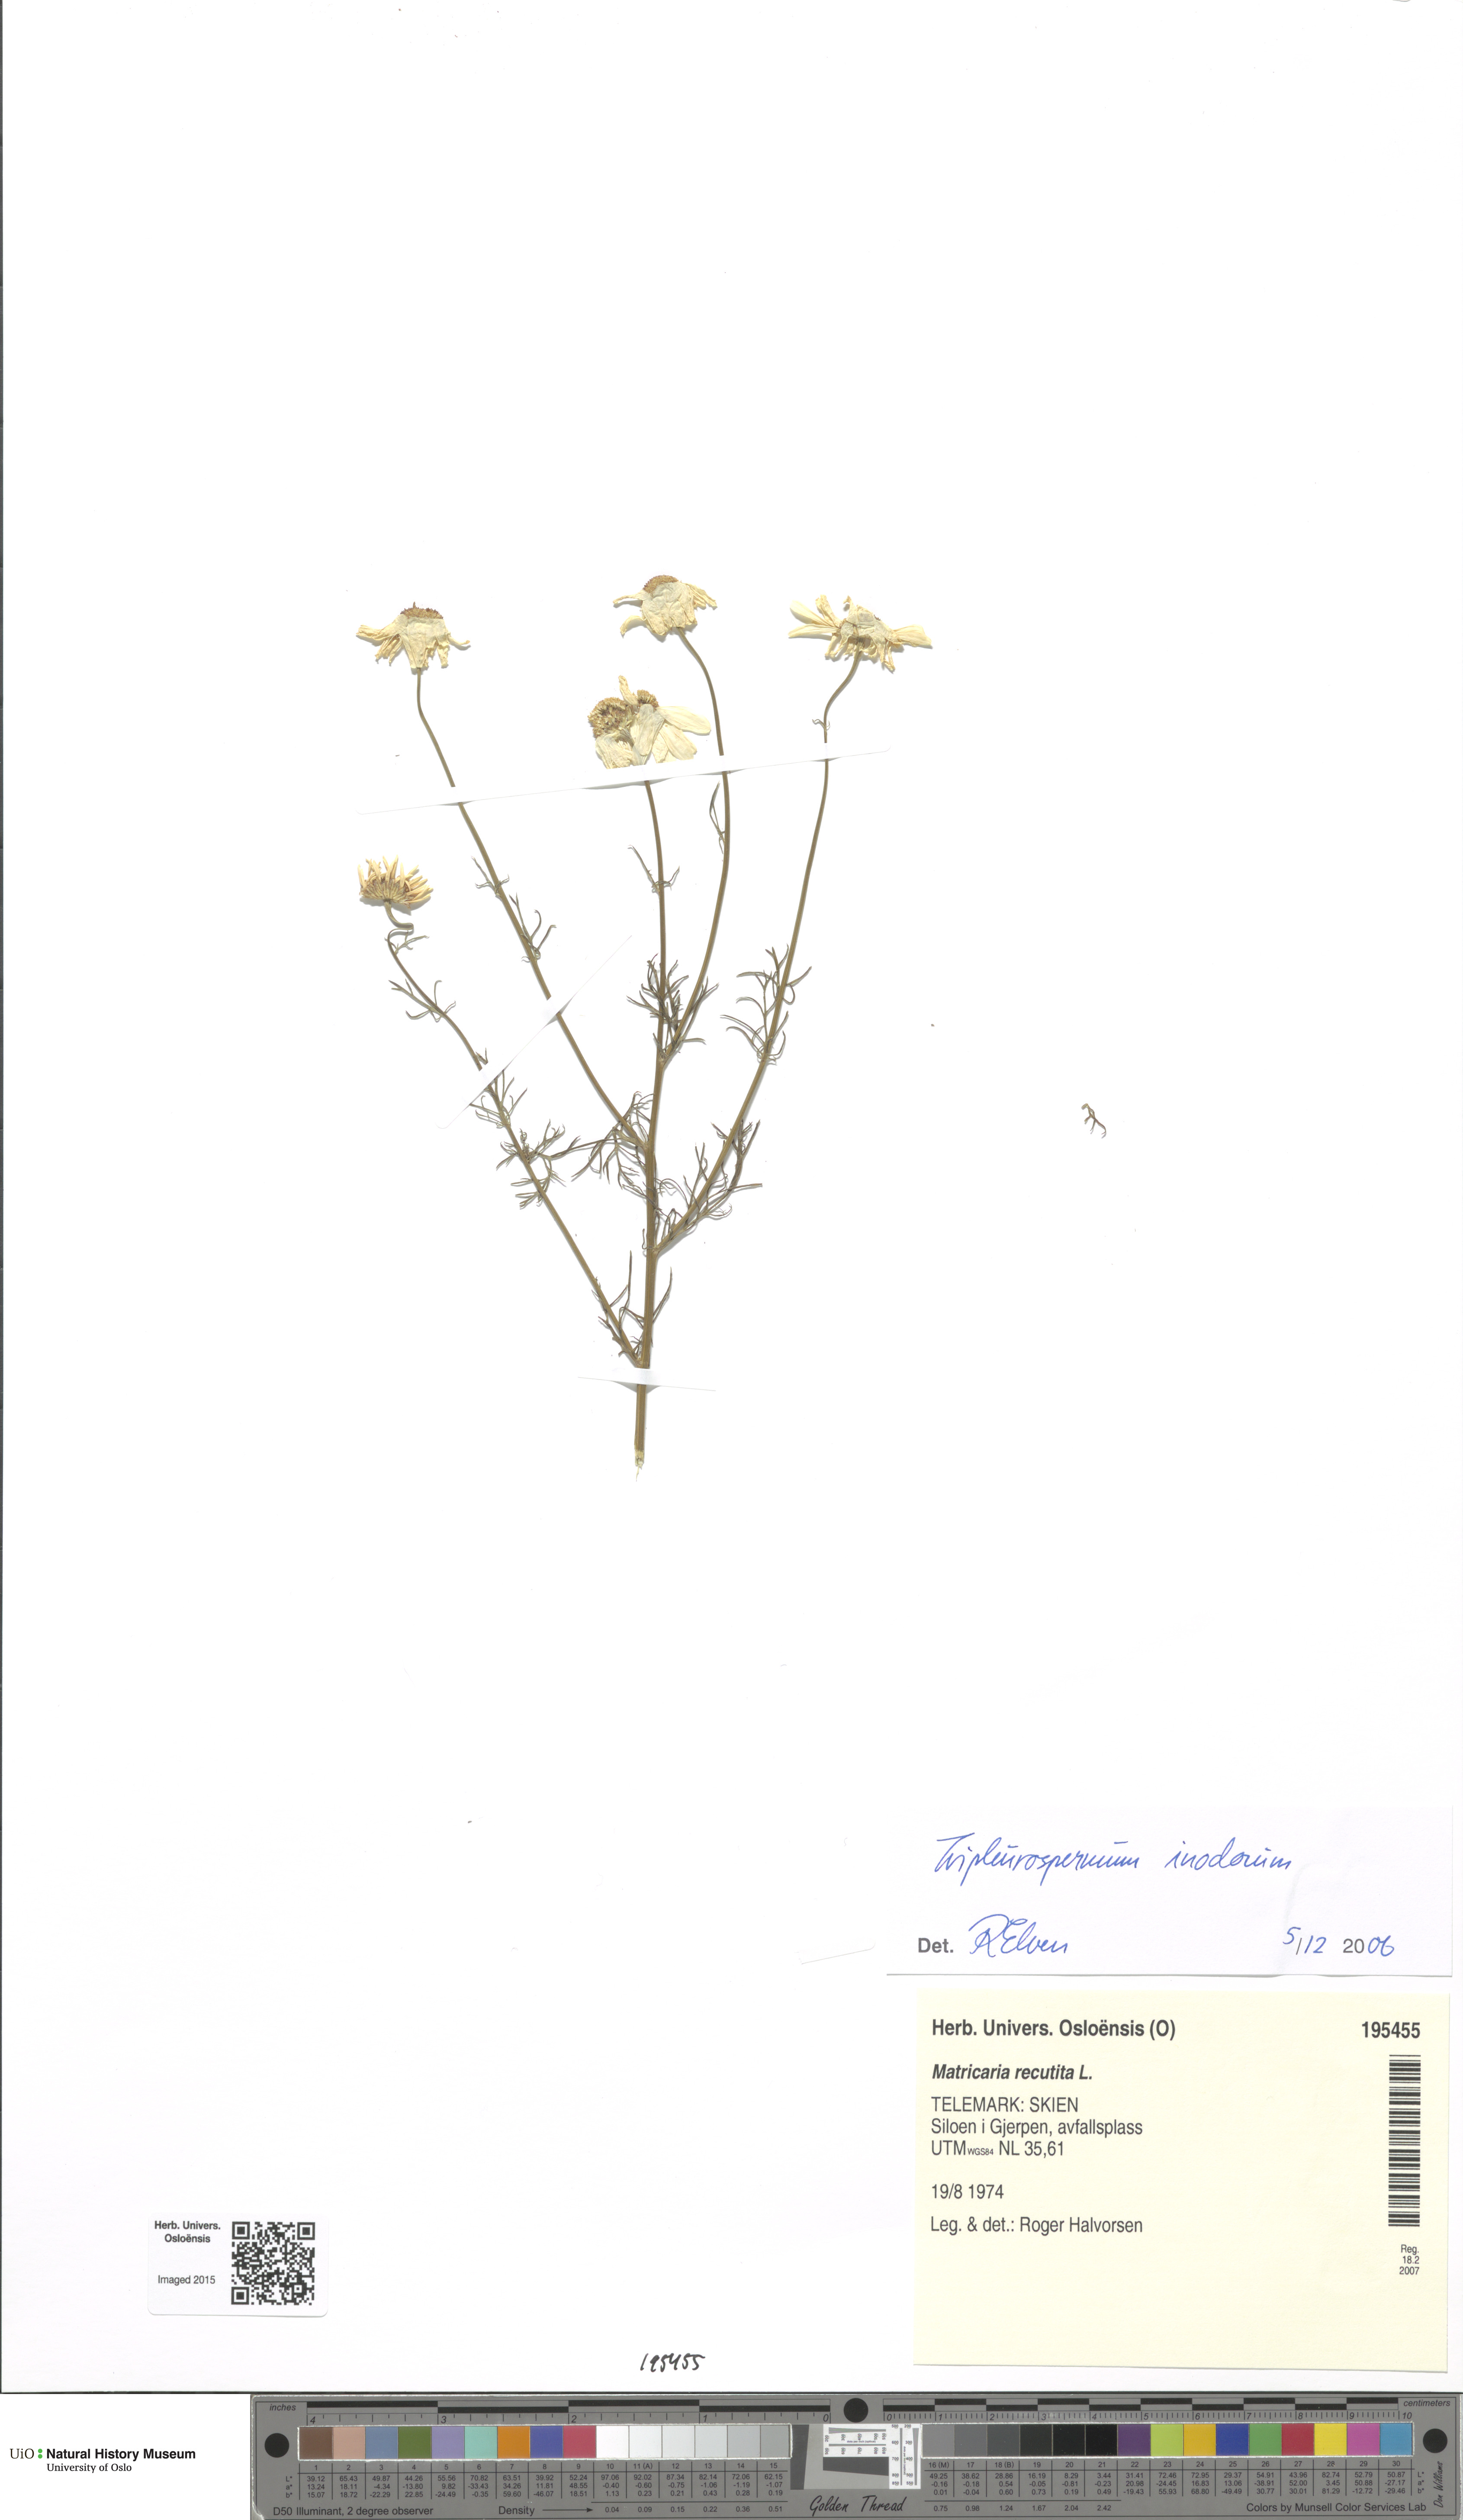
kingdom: Plantae
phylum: Tracheophyta
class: Magnoliopsida
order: Asterales
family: Asteraceae
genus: Tripleurospermum
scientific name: Tripleurospermum inodorum
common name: Scentless mayweed
